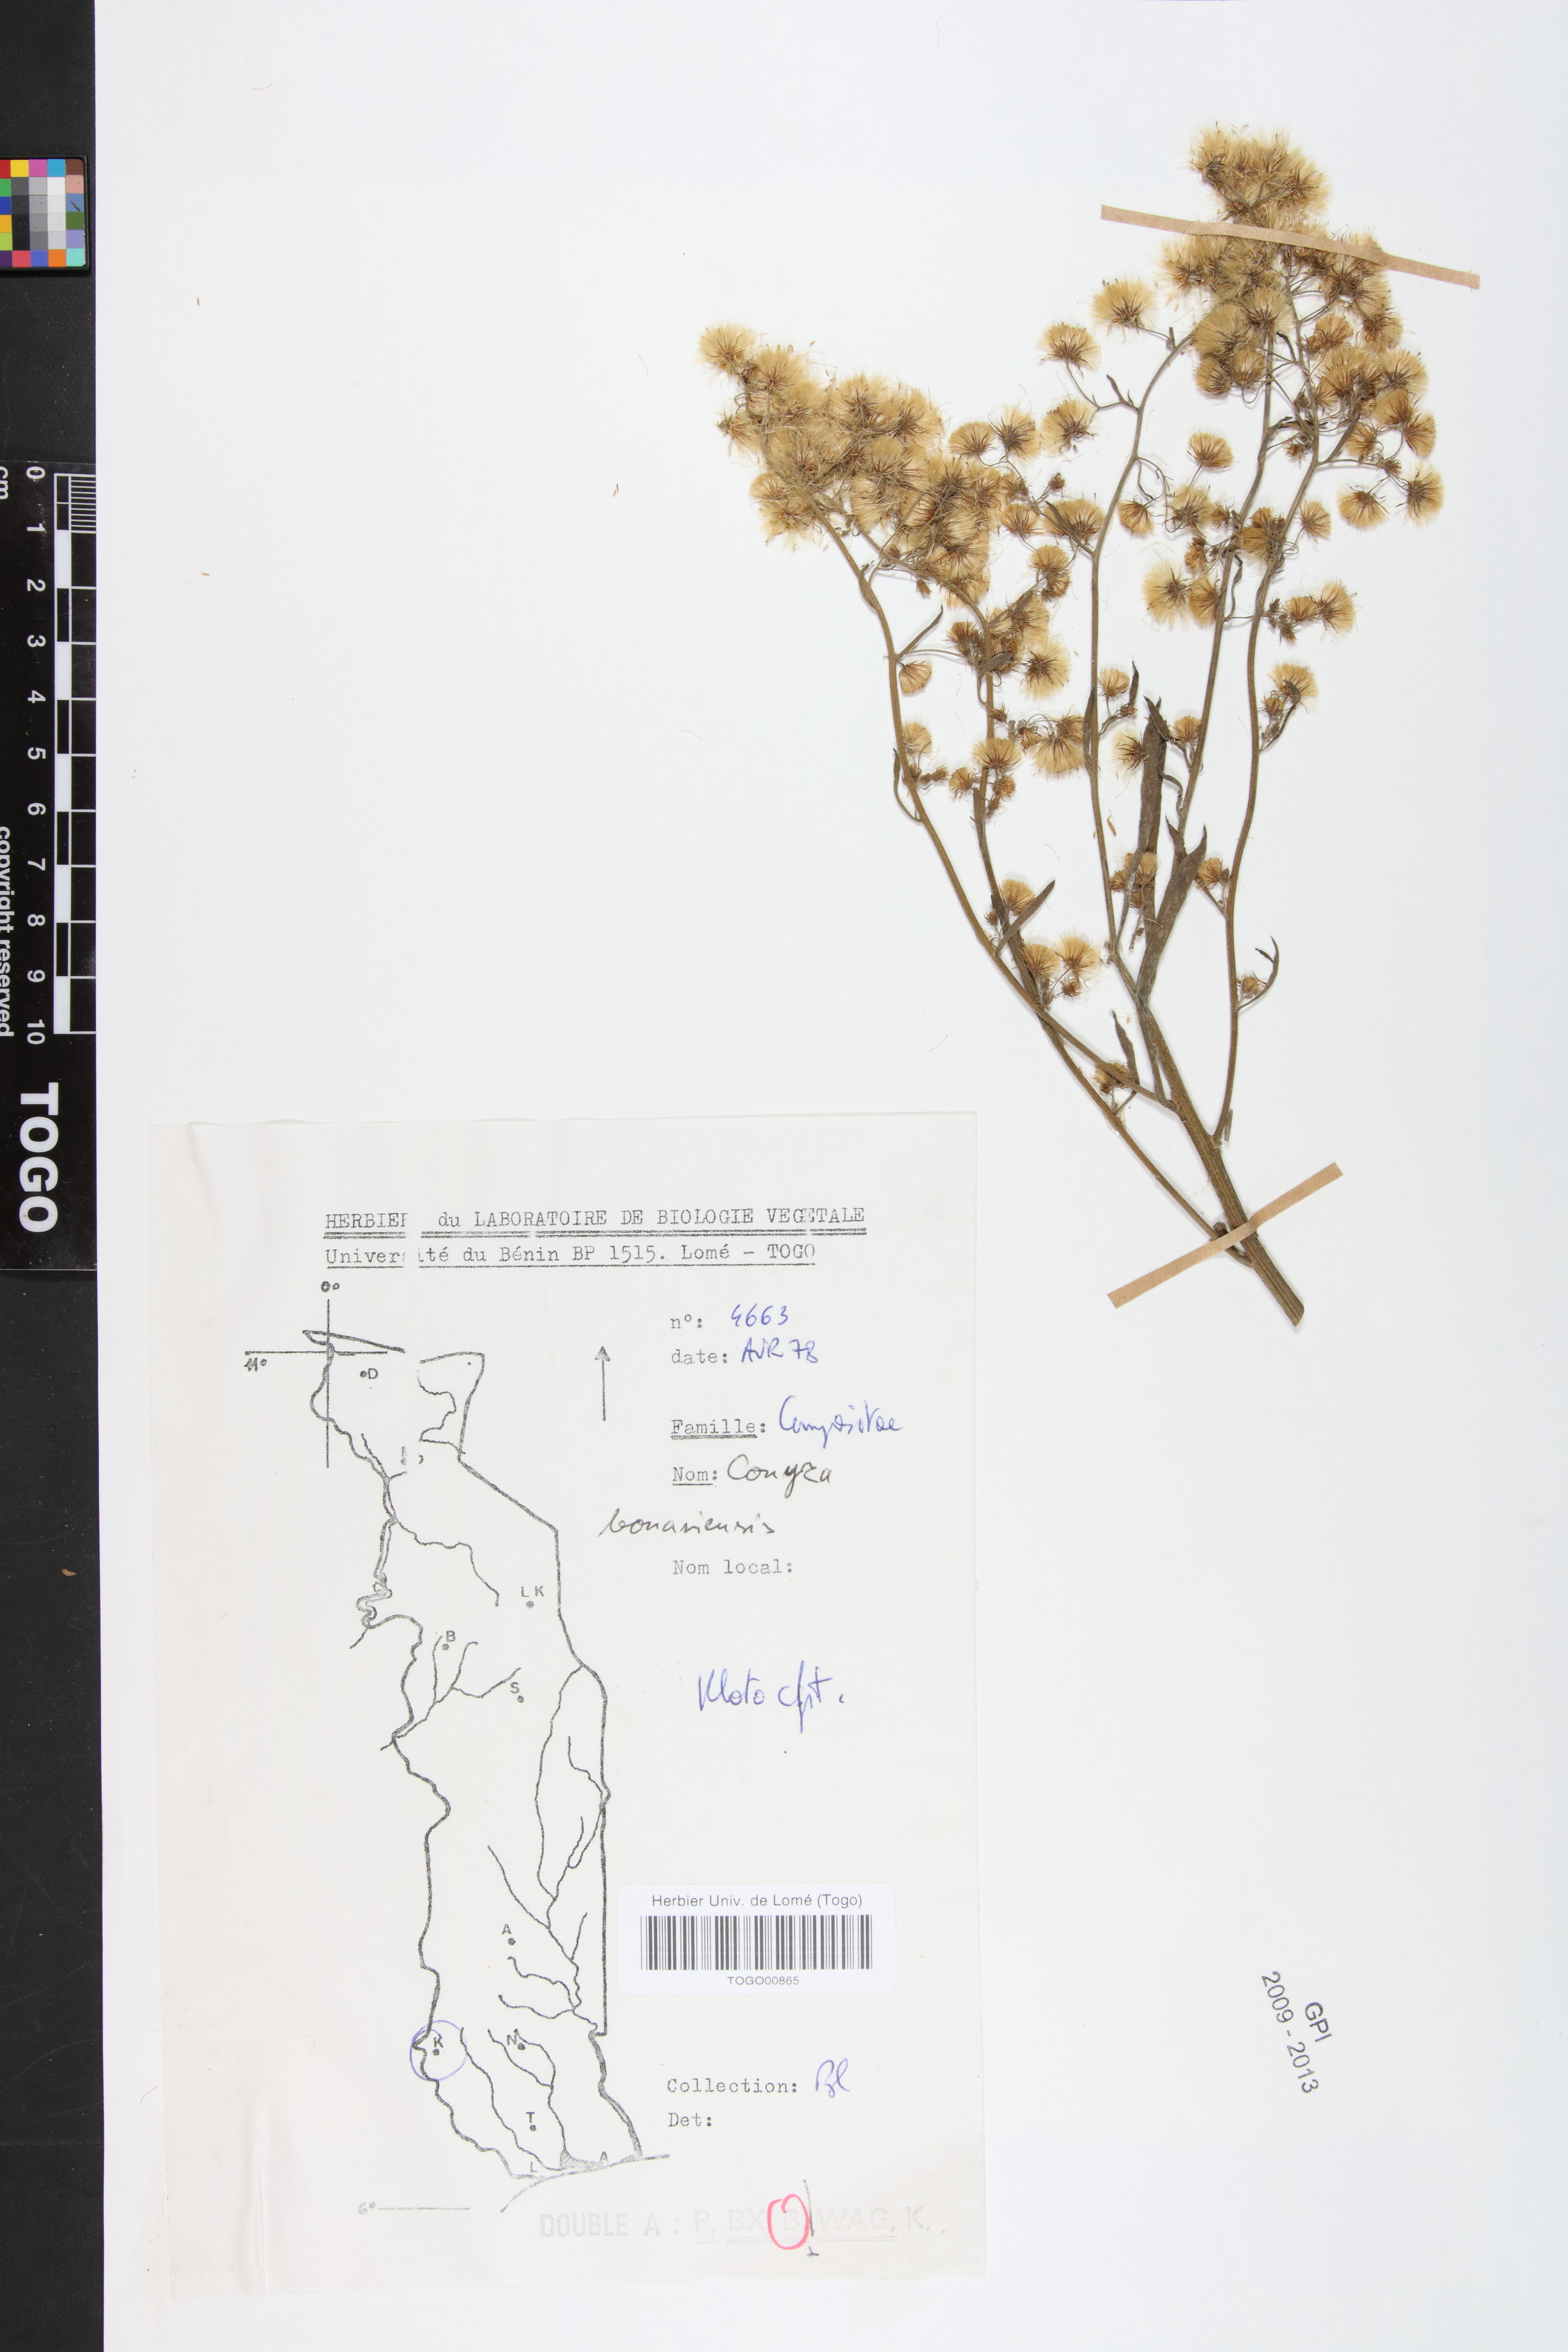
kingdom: Plantae
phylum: Tracheophyta
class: Magnoliopsida
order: Asterales
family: Asteraceae
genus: Erigeron
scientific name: Erigeron bonariensis
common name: Argentine fleabane
